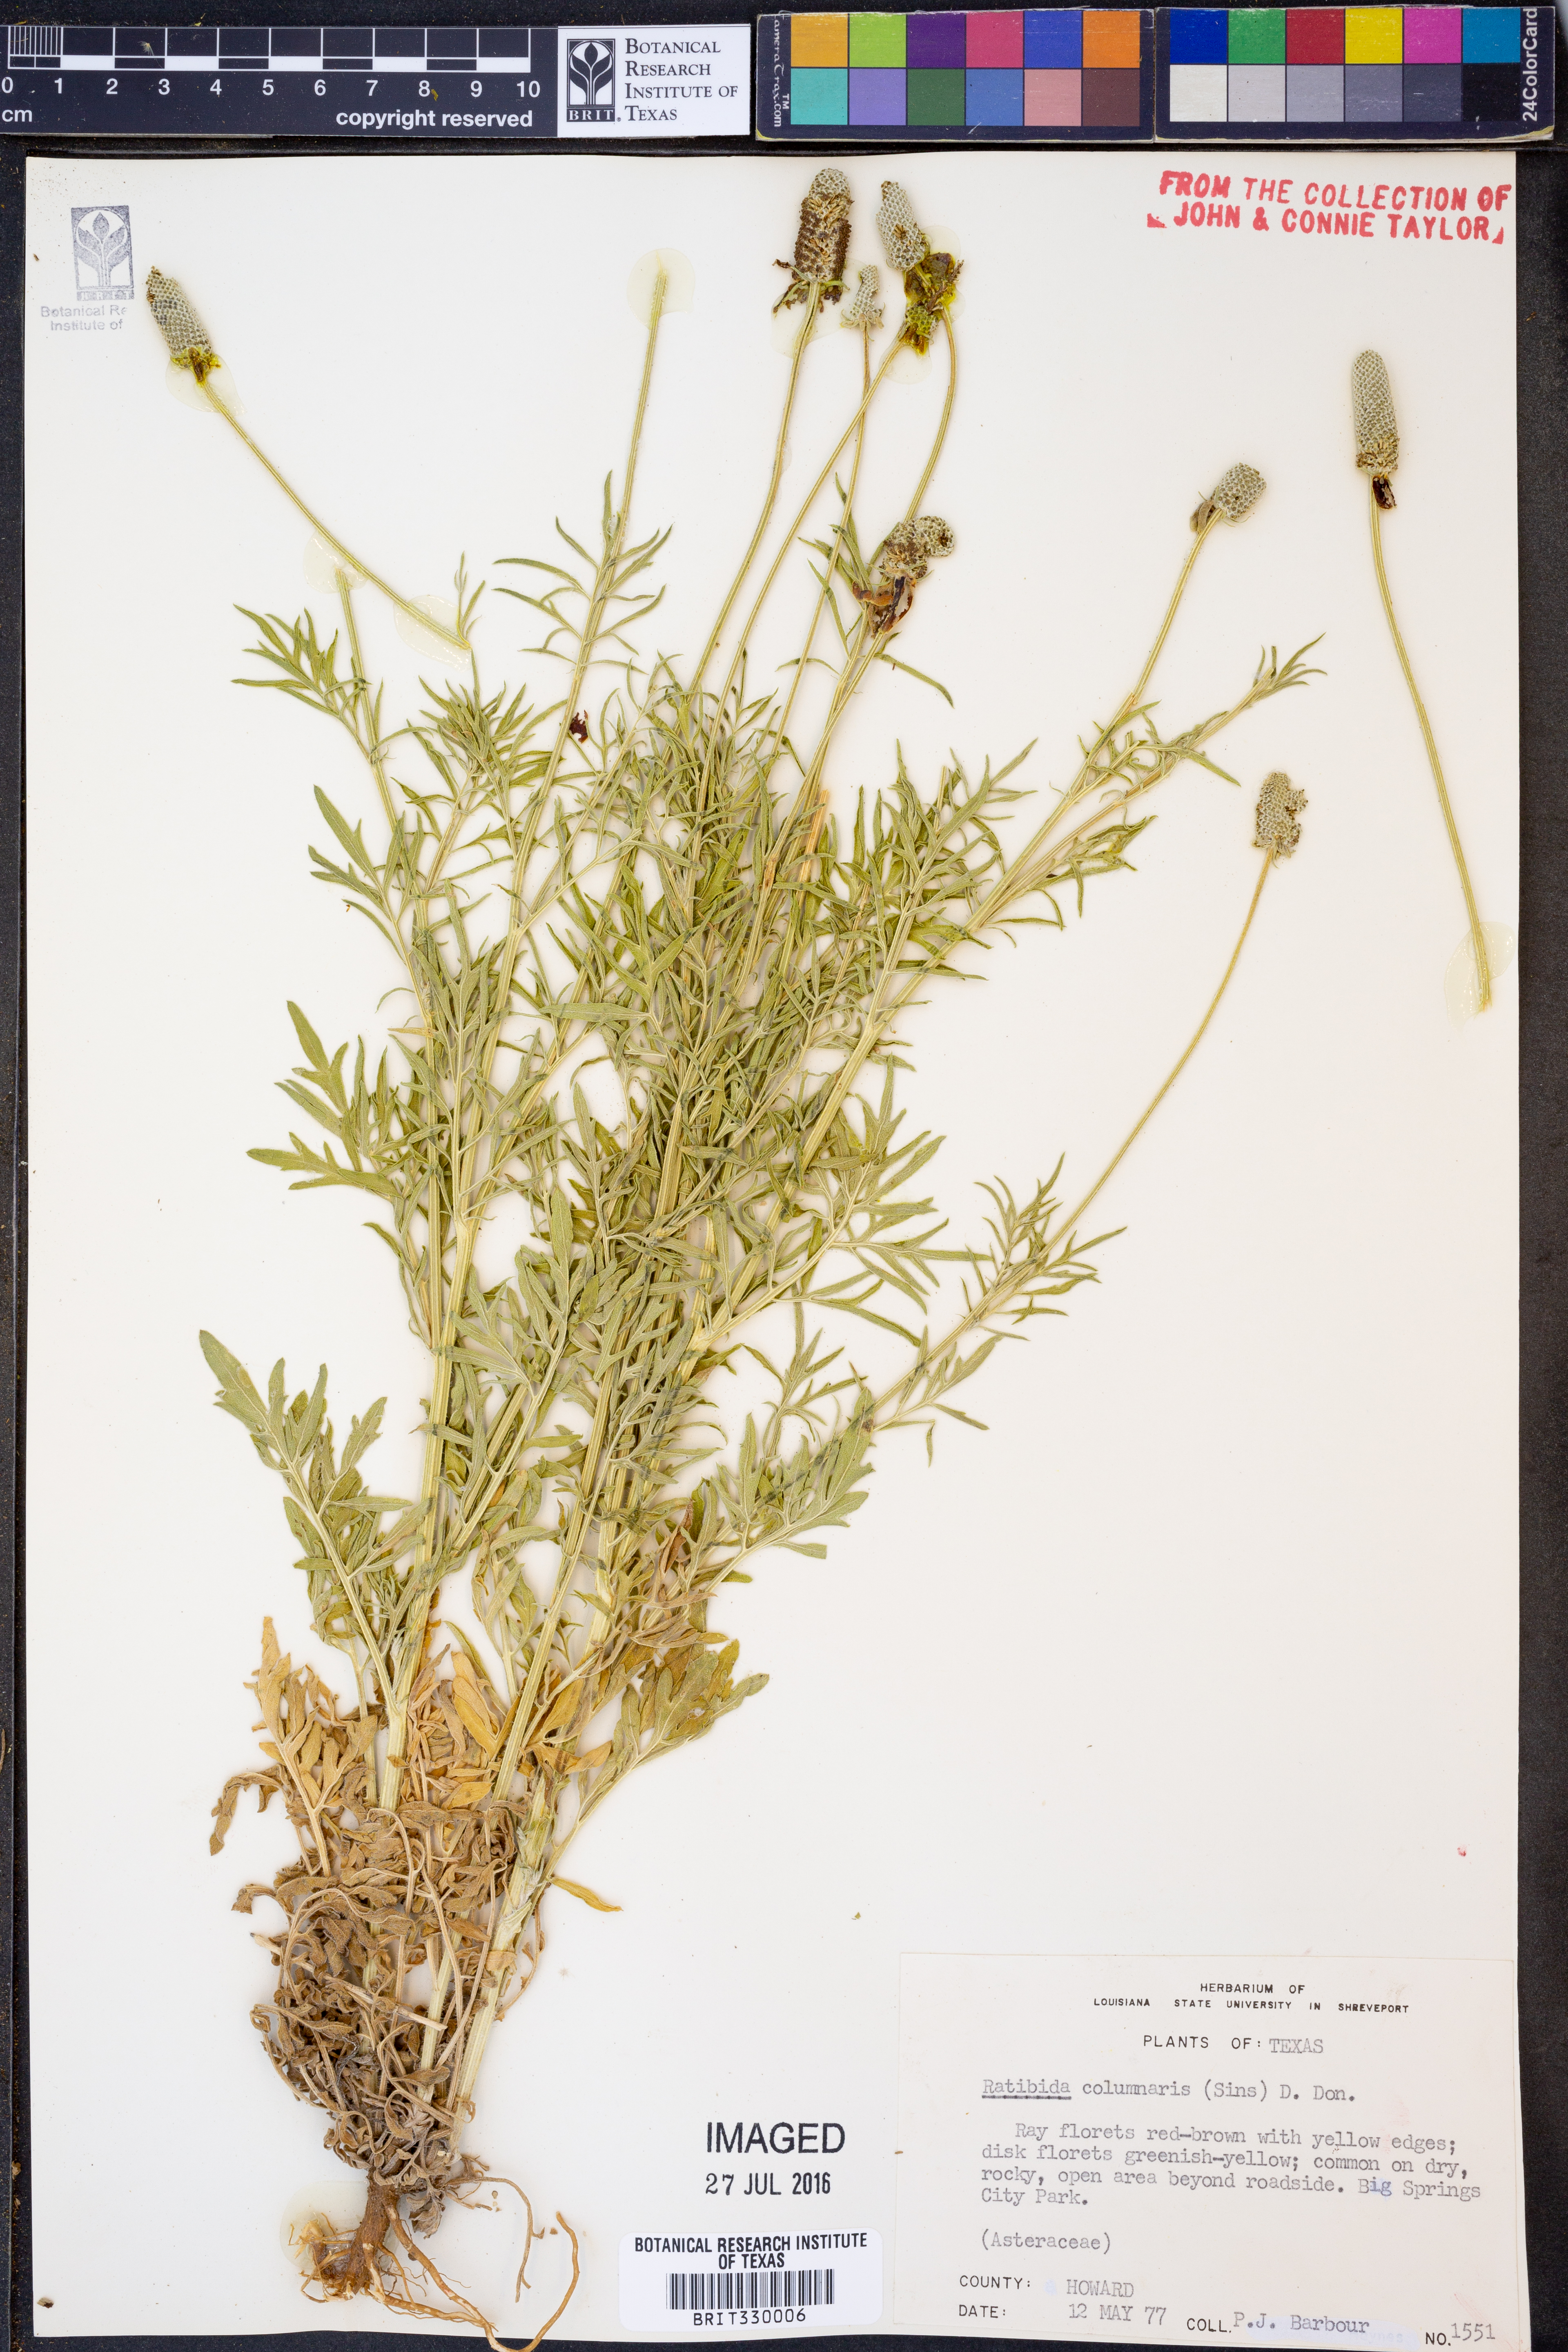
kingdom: Plantae
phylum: Tracheophyta
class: Magnoliopsida
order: Asterales
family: Asteraceae
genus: Ratibida
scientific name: Ratibida columnifera
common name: Prairie coneflower
